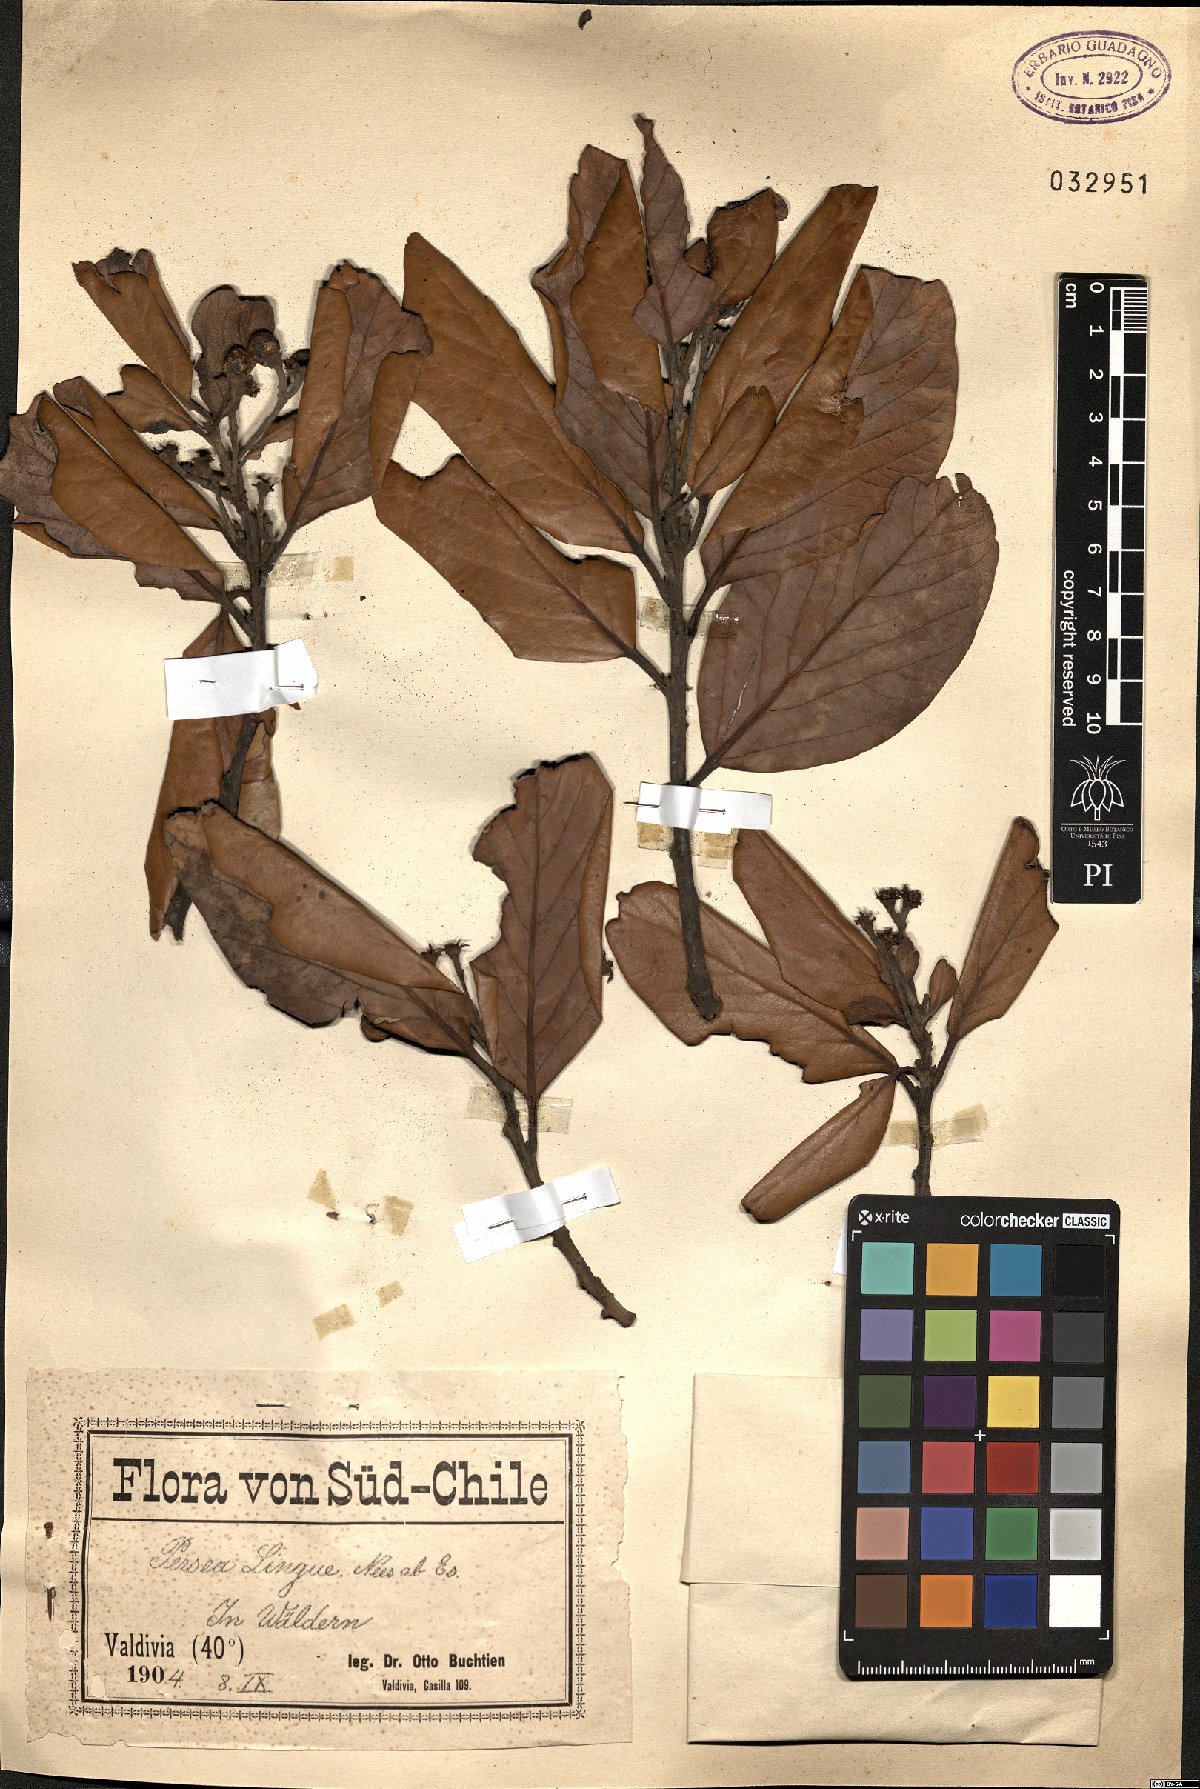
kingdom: Plantae
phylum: Tracheophyta
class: Magnoliopsida
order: Laurales
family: Lauraceae
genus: Persea
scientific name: Persea lingue
